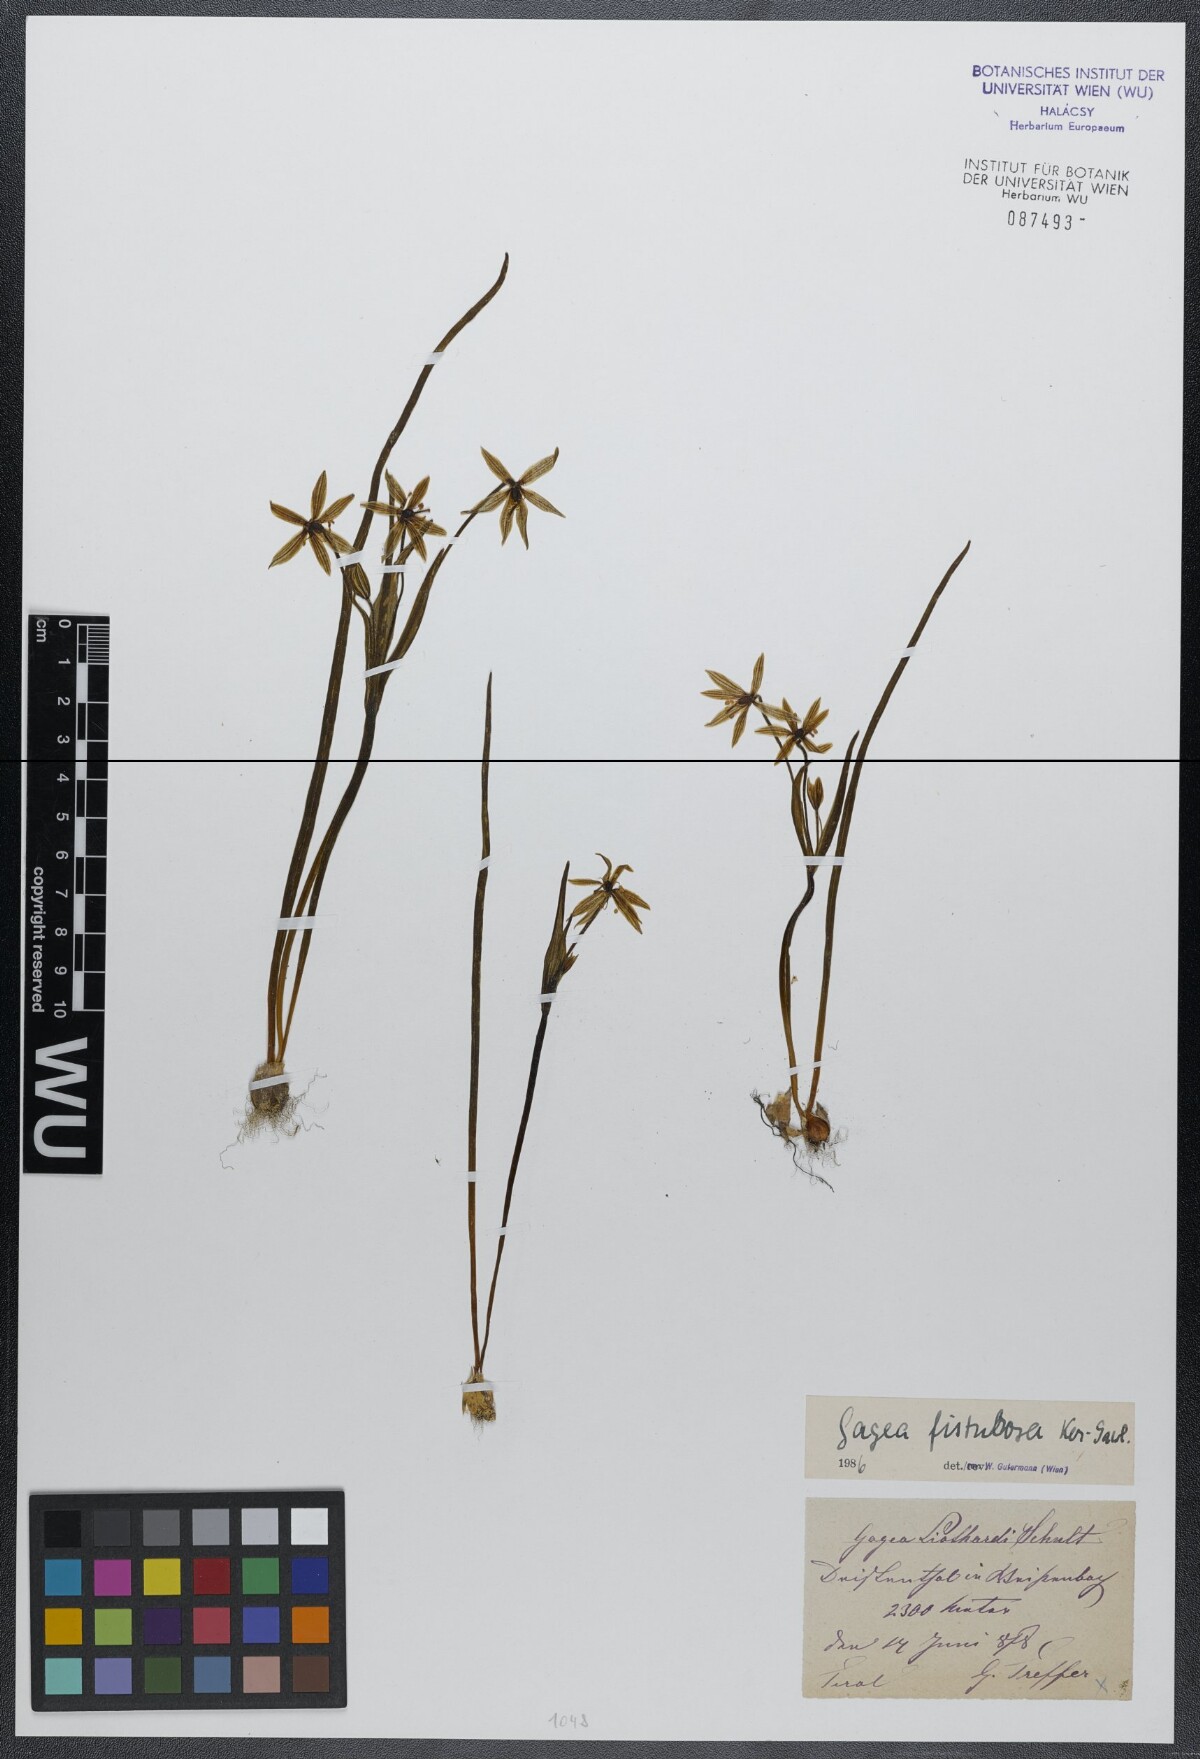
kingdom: Plantae
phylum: Tracheophyta
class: Liliopsida
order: Liliales
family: Liliaceae
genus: Gagea
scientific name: Gagea fragifera
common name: Lily
